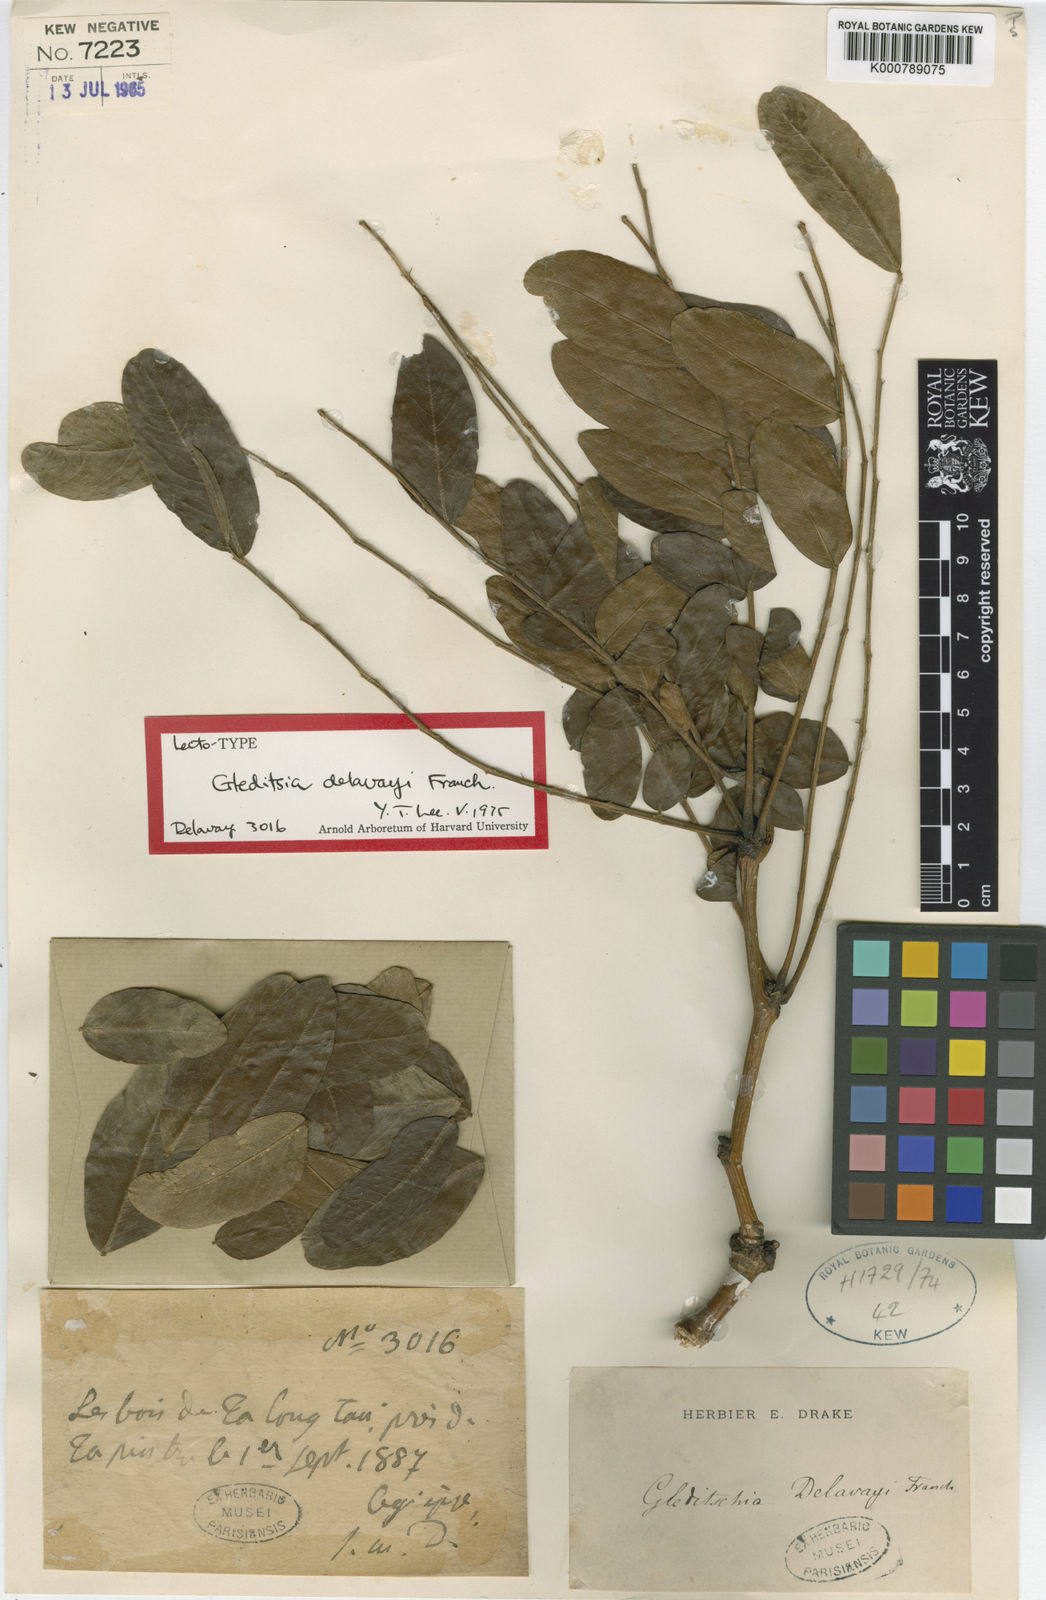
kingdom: Plantae
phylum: Tracheophyta
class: Magnoliopsida
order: Fabales
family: Fabaceae
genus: Gleditsia
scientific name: Gleditsia japonica
